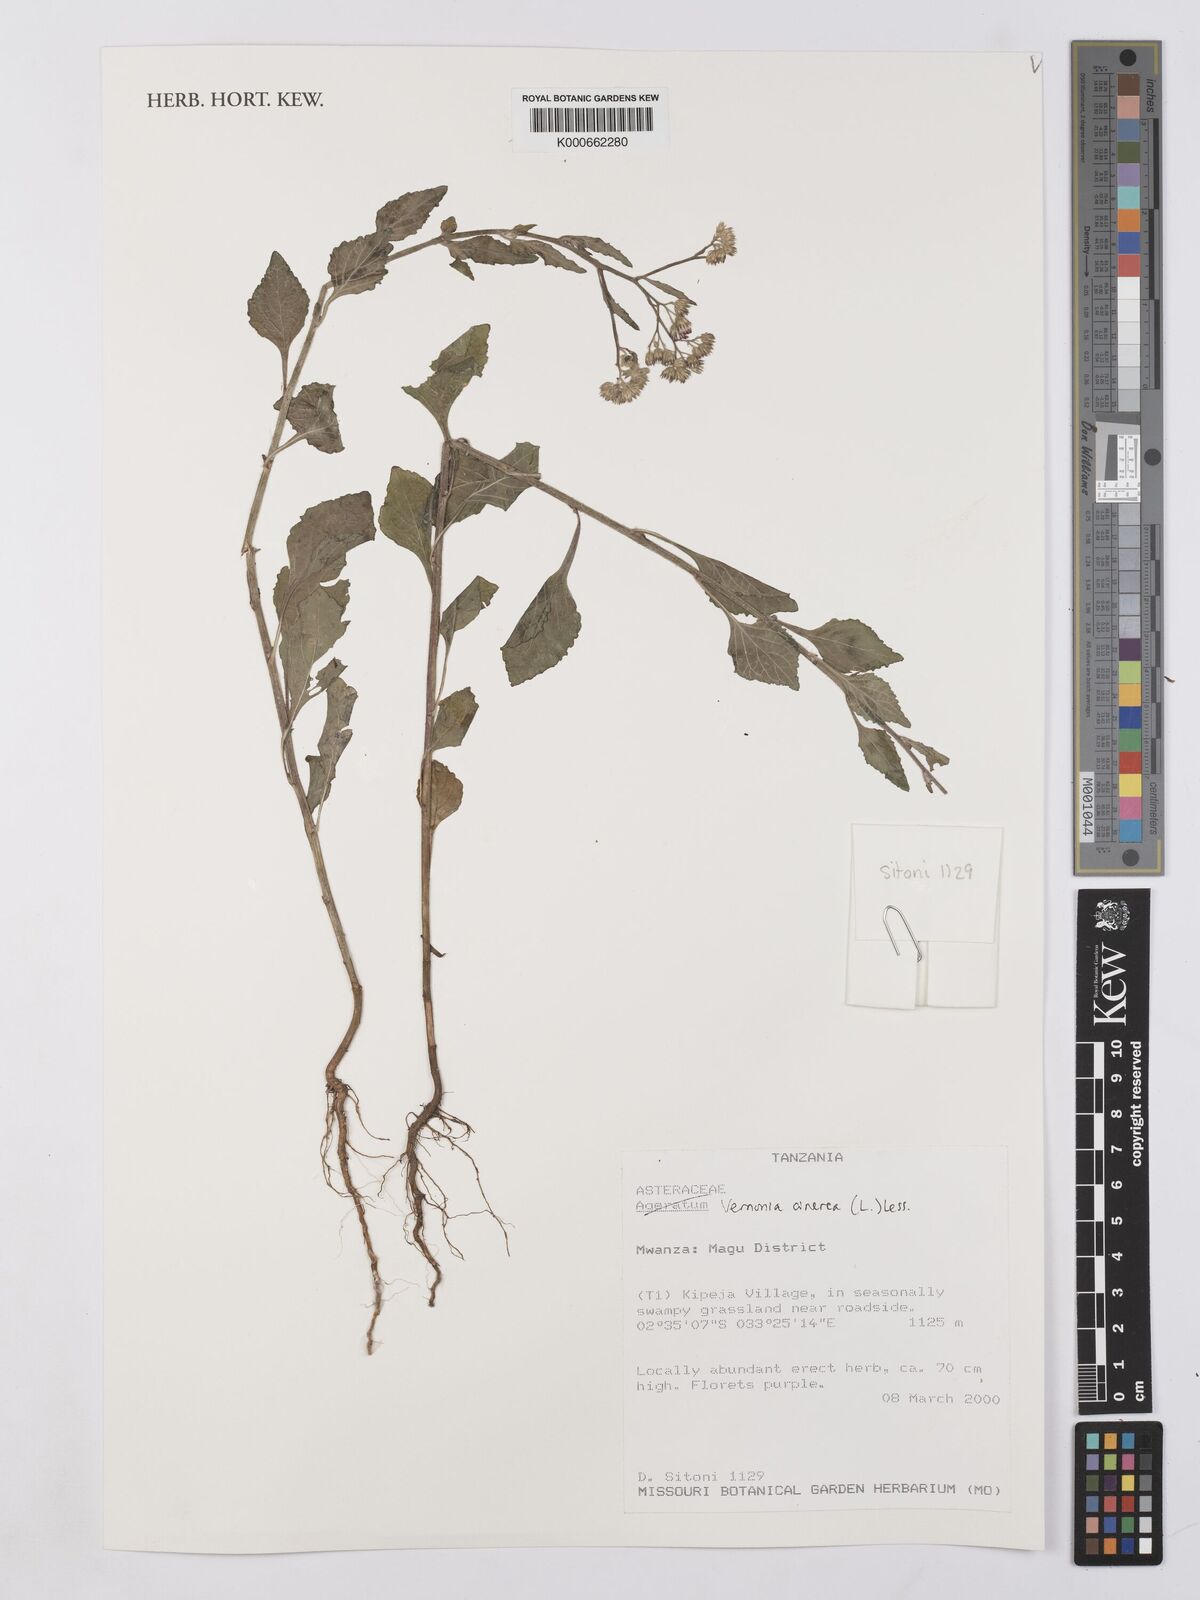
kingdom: Plantae
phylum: Tracheophyta
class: Magnoliopsida
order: Asterales
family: Asteraceae
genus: Cyanthillium
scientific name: Cyanthillium cinereum
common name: Little ironweed
